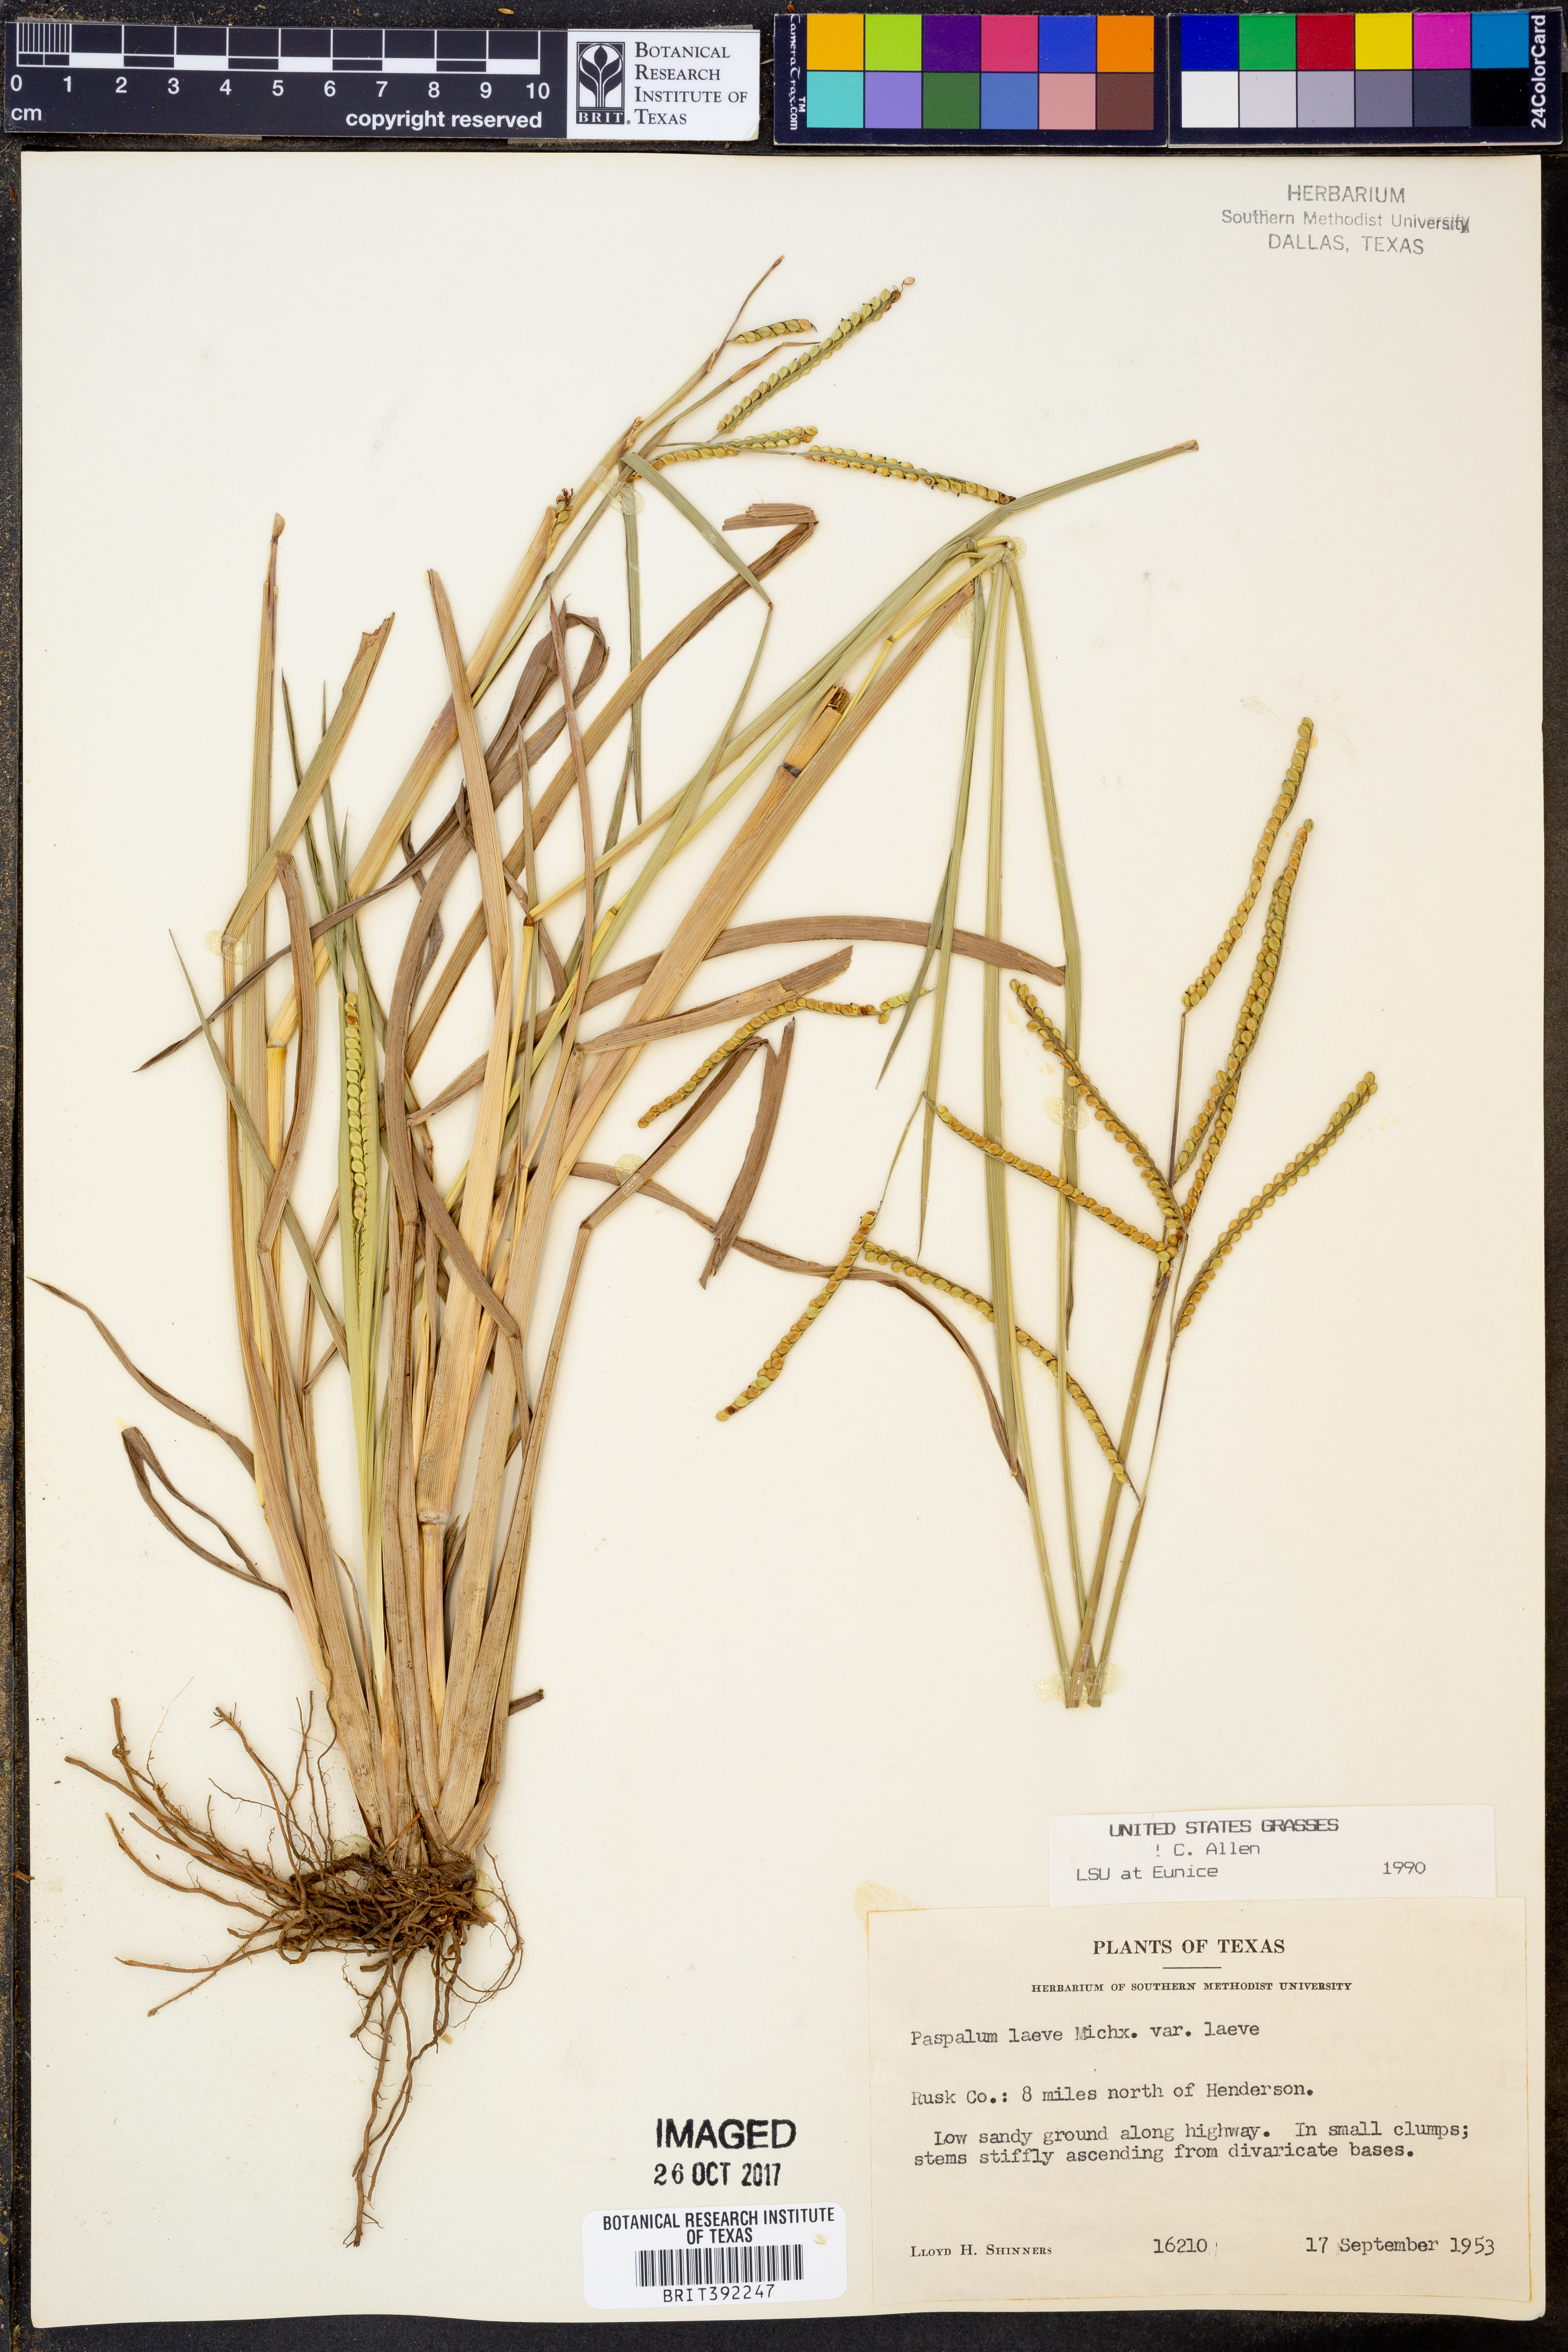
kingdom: Plantae
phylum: Tracheophyta
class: Liliopsida
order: Poales
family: Poaceae
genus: Paspalum
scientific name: Paspalum laeve
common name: Field paspalum
